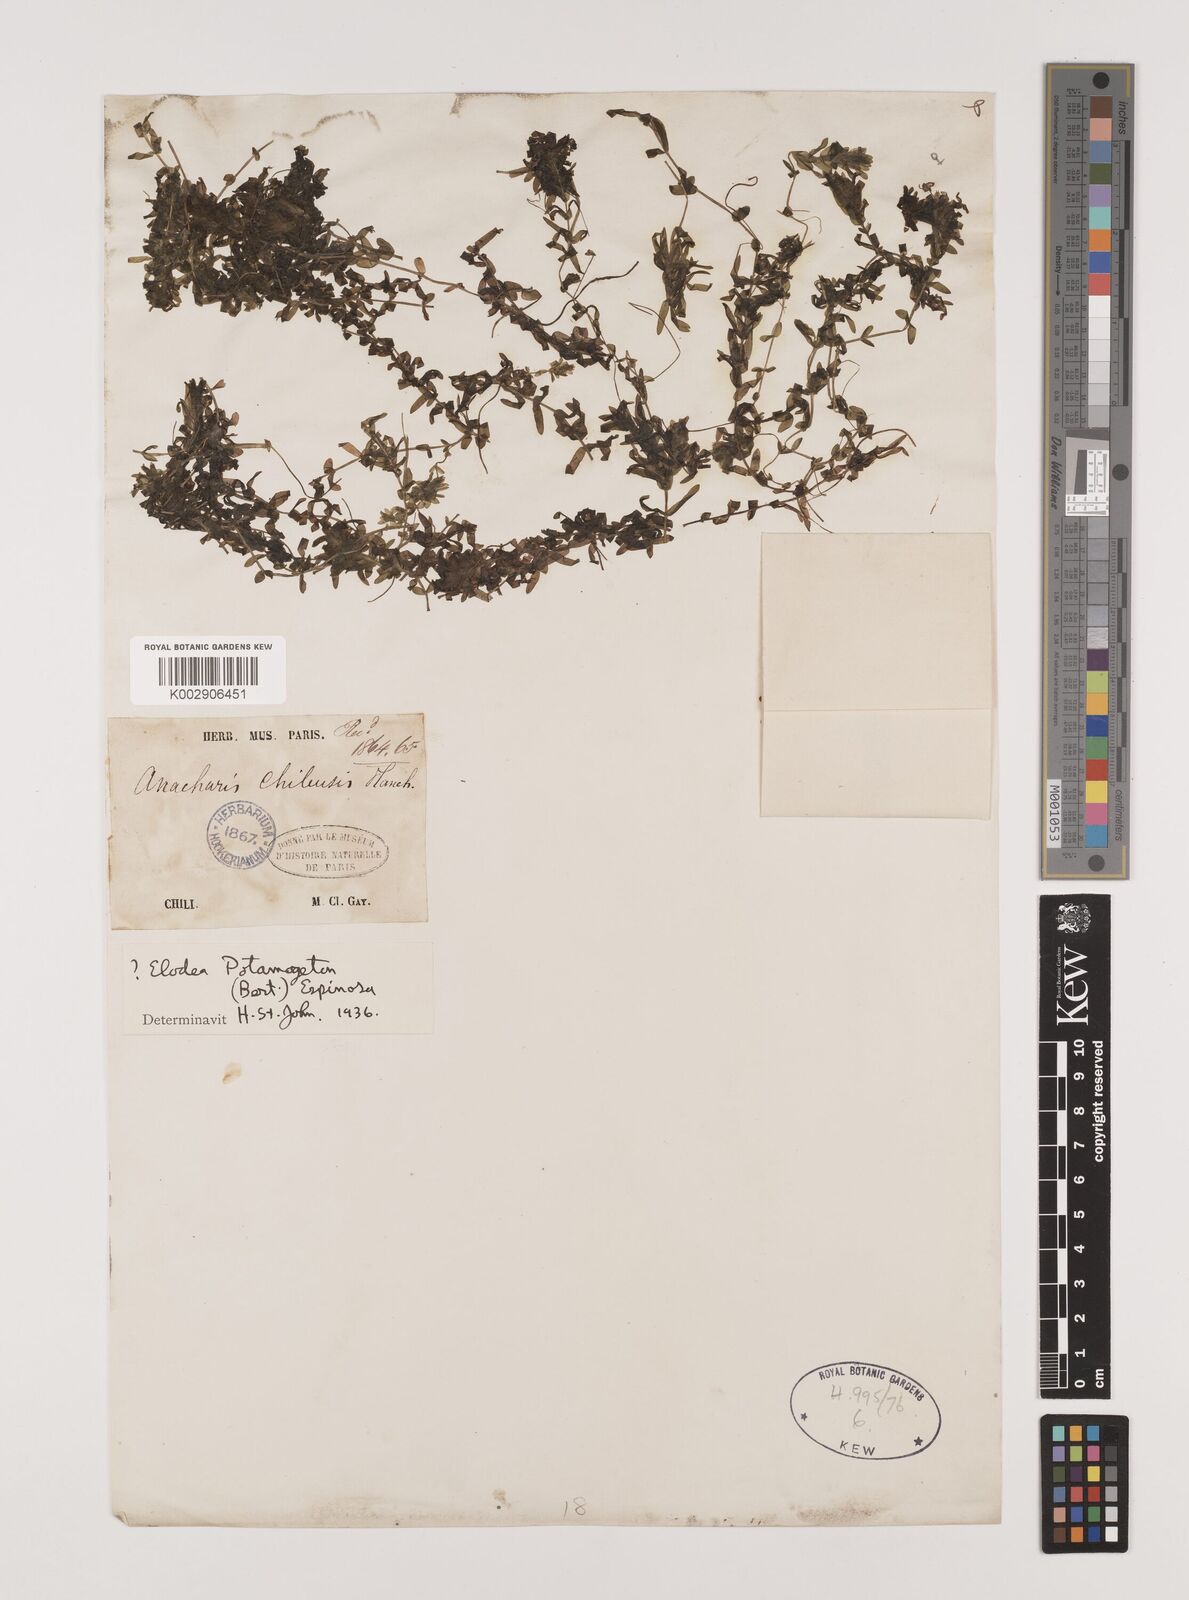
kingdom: Plantae
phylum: Tracheophyta
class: Liliopsida
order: Alismatales
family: Hydrocharitaceae
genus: Elodea
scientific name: Elodea potamogeton
